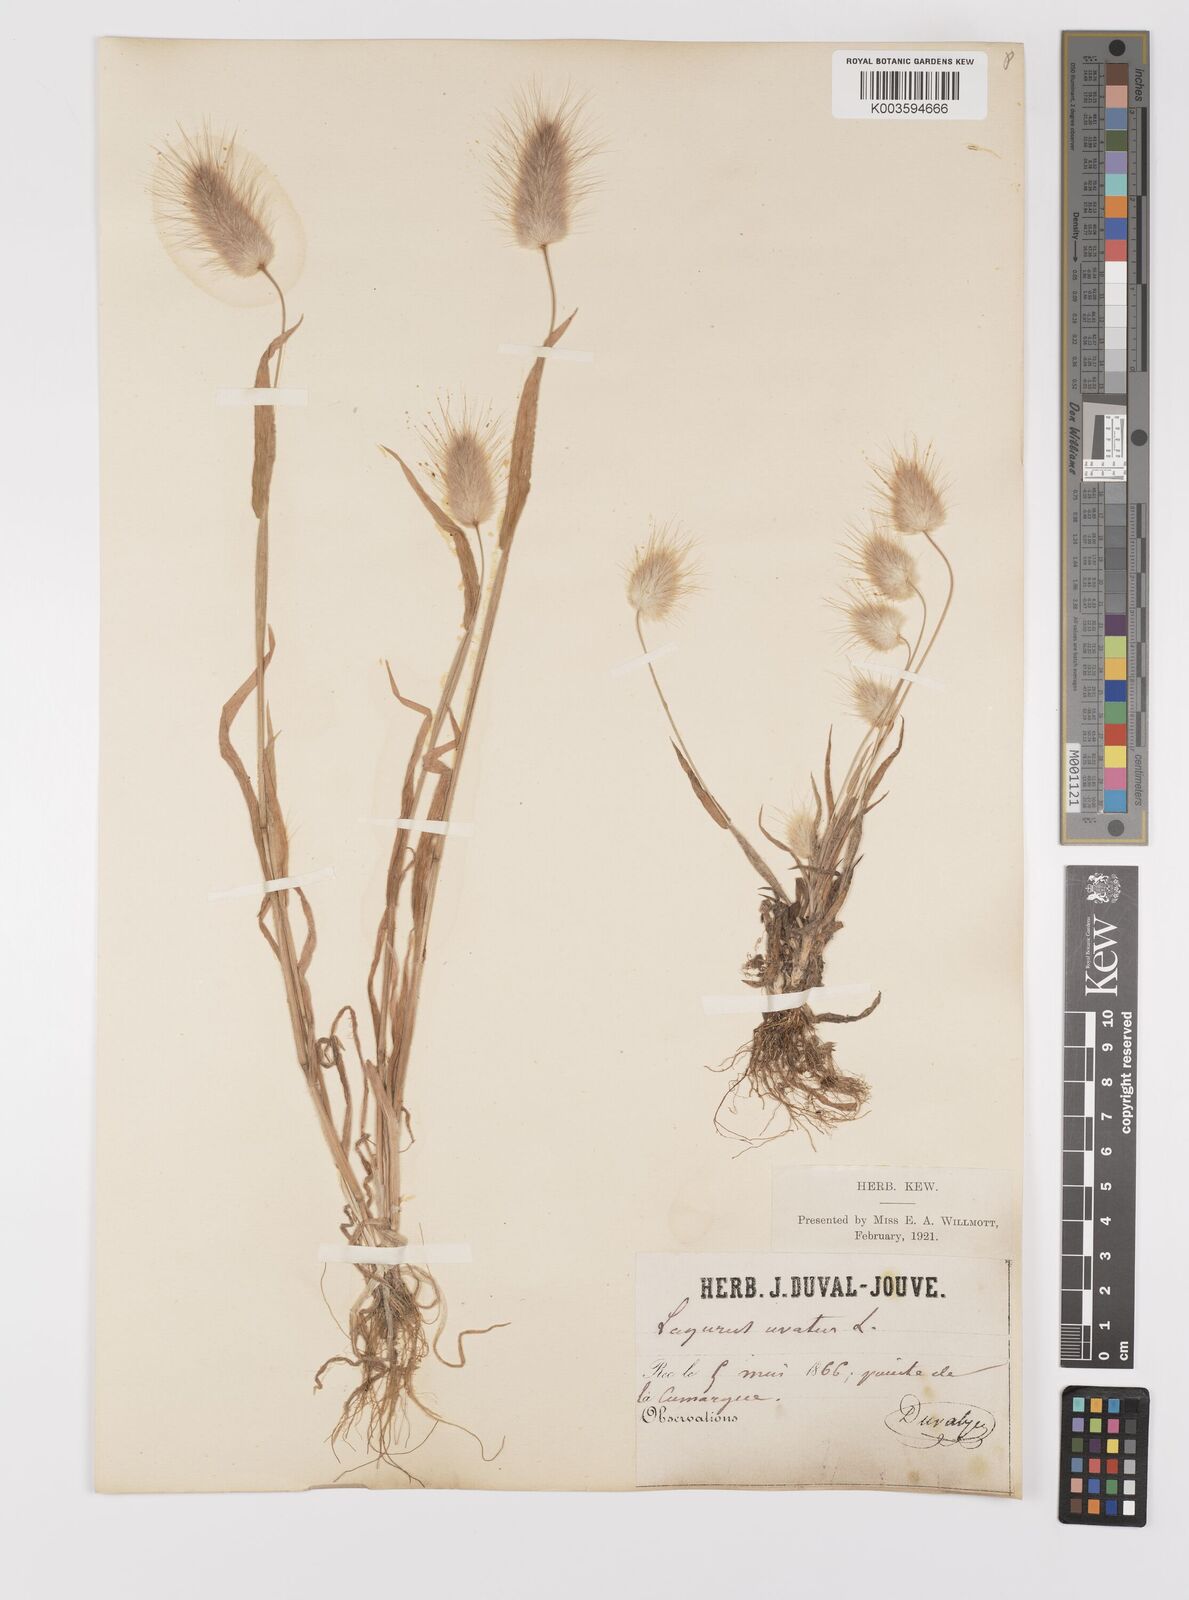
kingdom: Plantae
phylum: Tracheophyta
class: Liliopsida
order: Poales
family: Poaceae
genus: Lagurus
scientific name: Lagurus ovatus
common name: Hare's-tail
